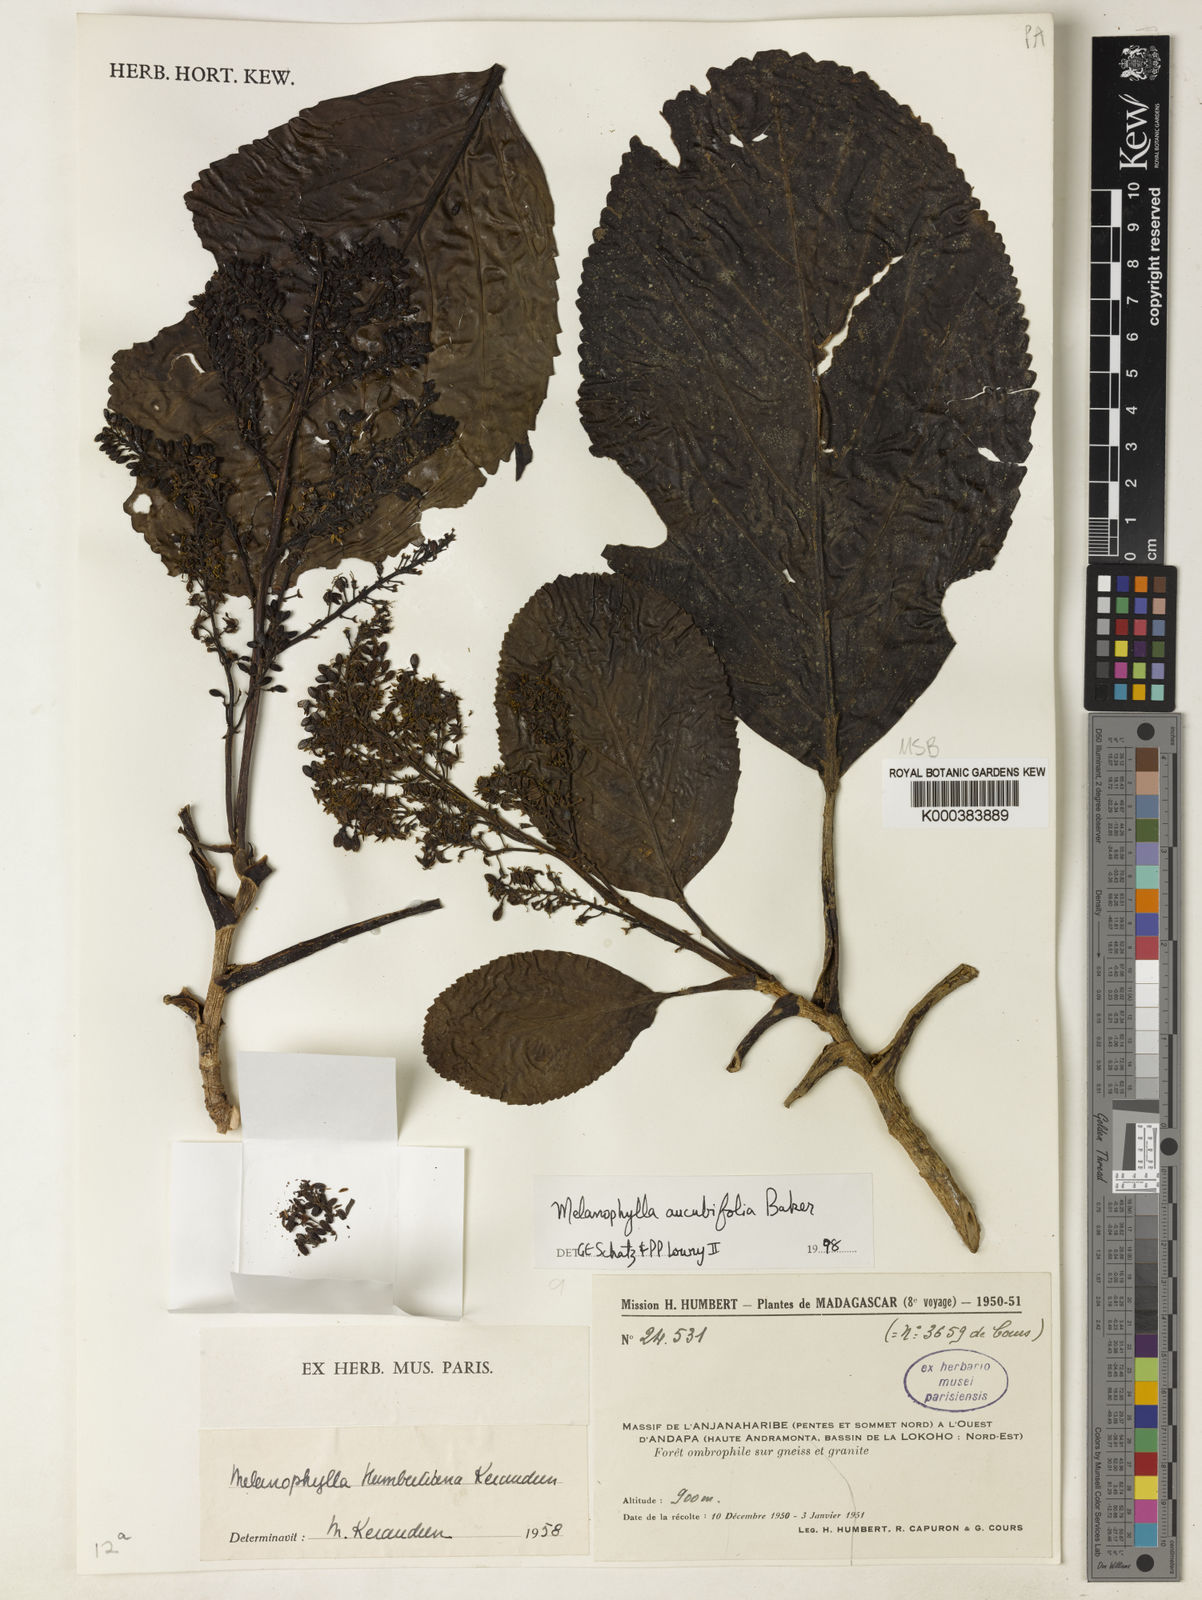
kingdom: Plantae
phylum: Tracheophyta
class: Magnoliopsida
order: Apiales
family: Torricelliaceae
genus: Melanophylla
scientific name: Melanophylla aucubifolia
